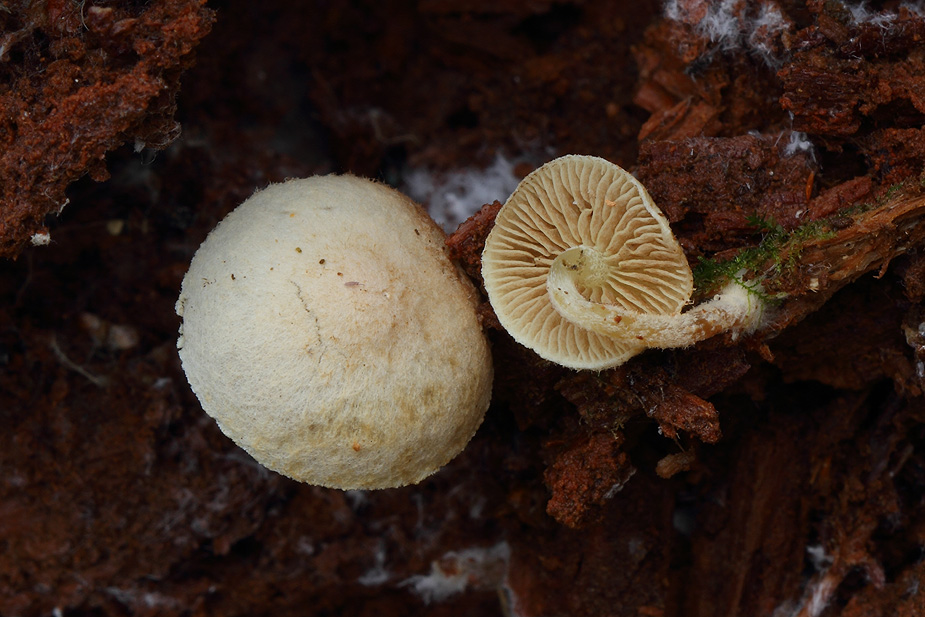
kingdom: Fungi
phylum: Basidiomycota
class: Agaricomycetes
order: Agaricales
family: Strophariaceae
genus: Pholiota
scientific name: Pholiota scamba
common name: dværg-skælhat
